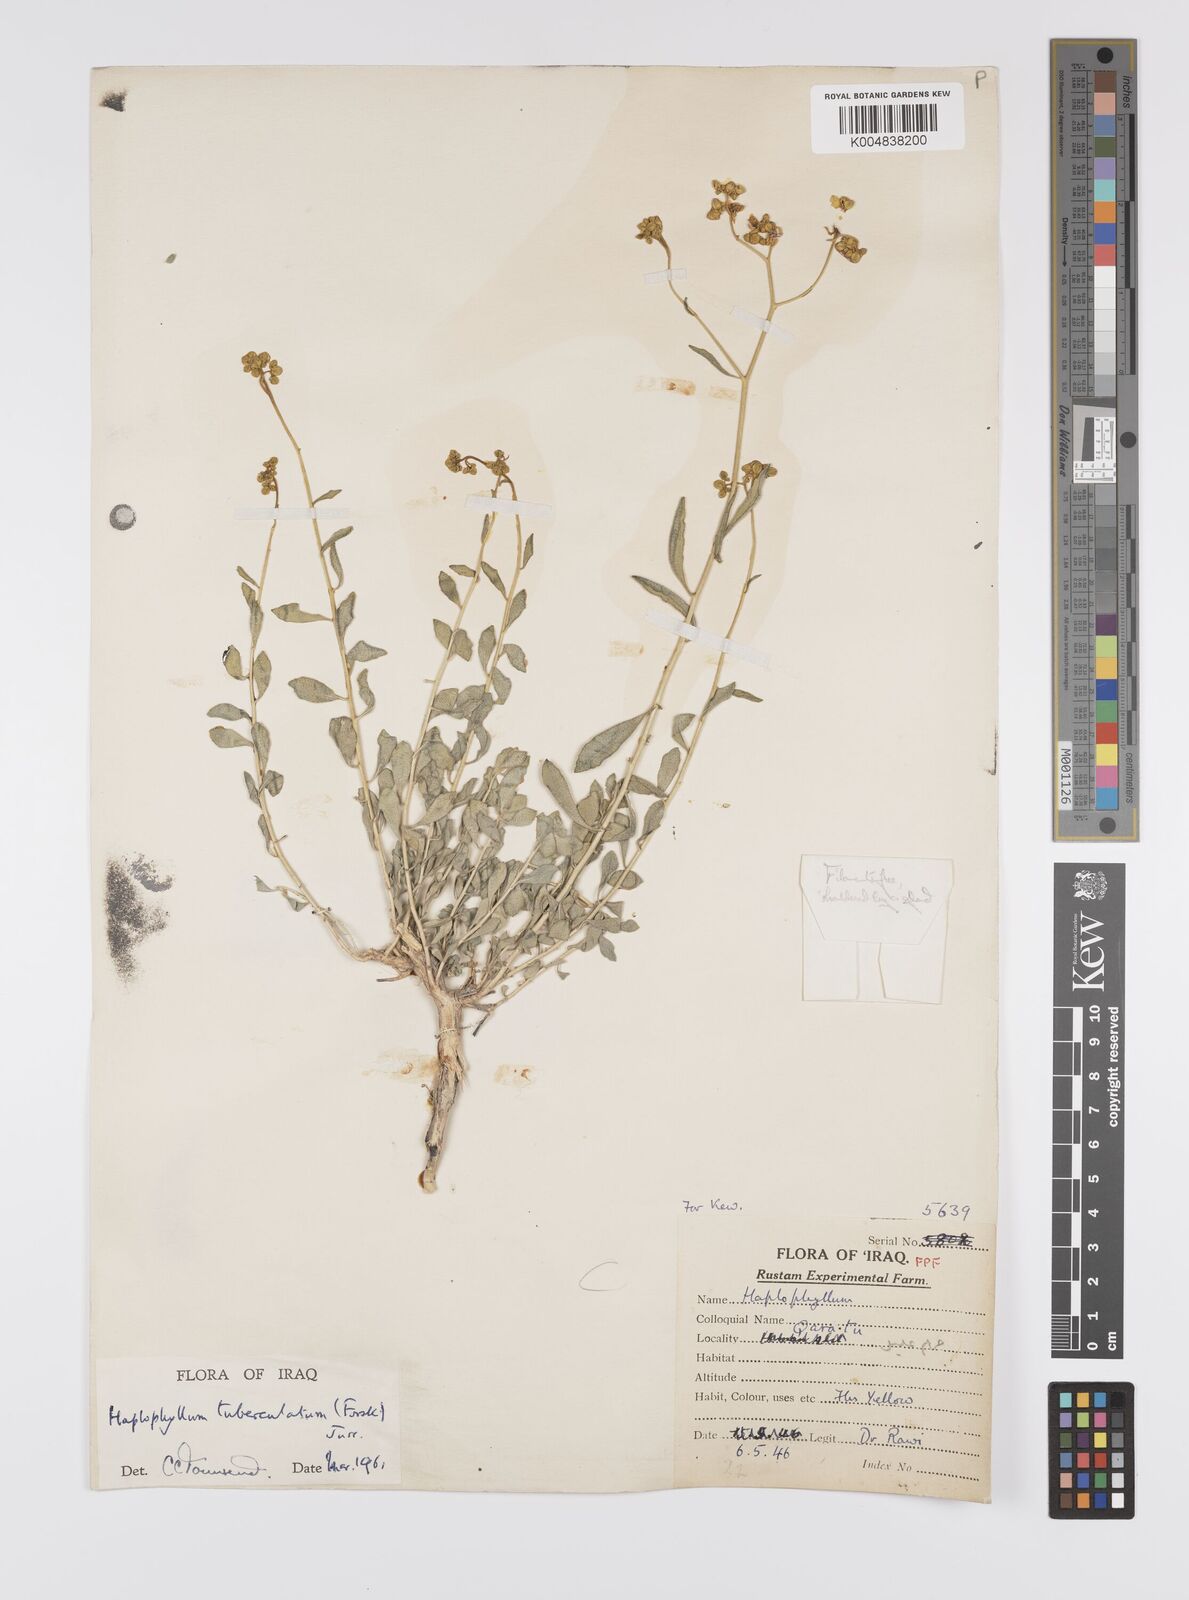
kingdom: Plantae
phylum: Tracheophyta
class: Magnoliopsida
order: Sapindales
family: Rutaceae
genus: Haplophyllum
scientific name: Haplophyllum tuberculatum
